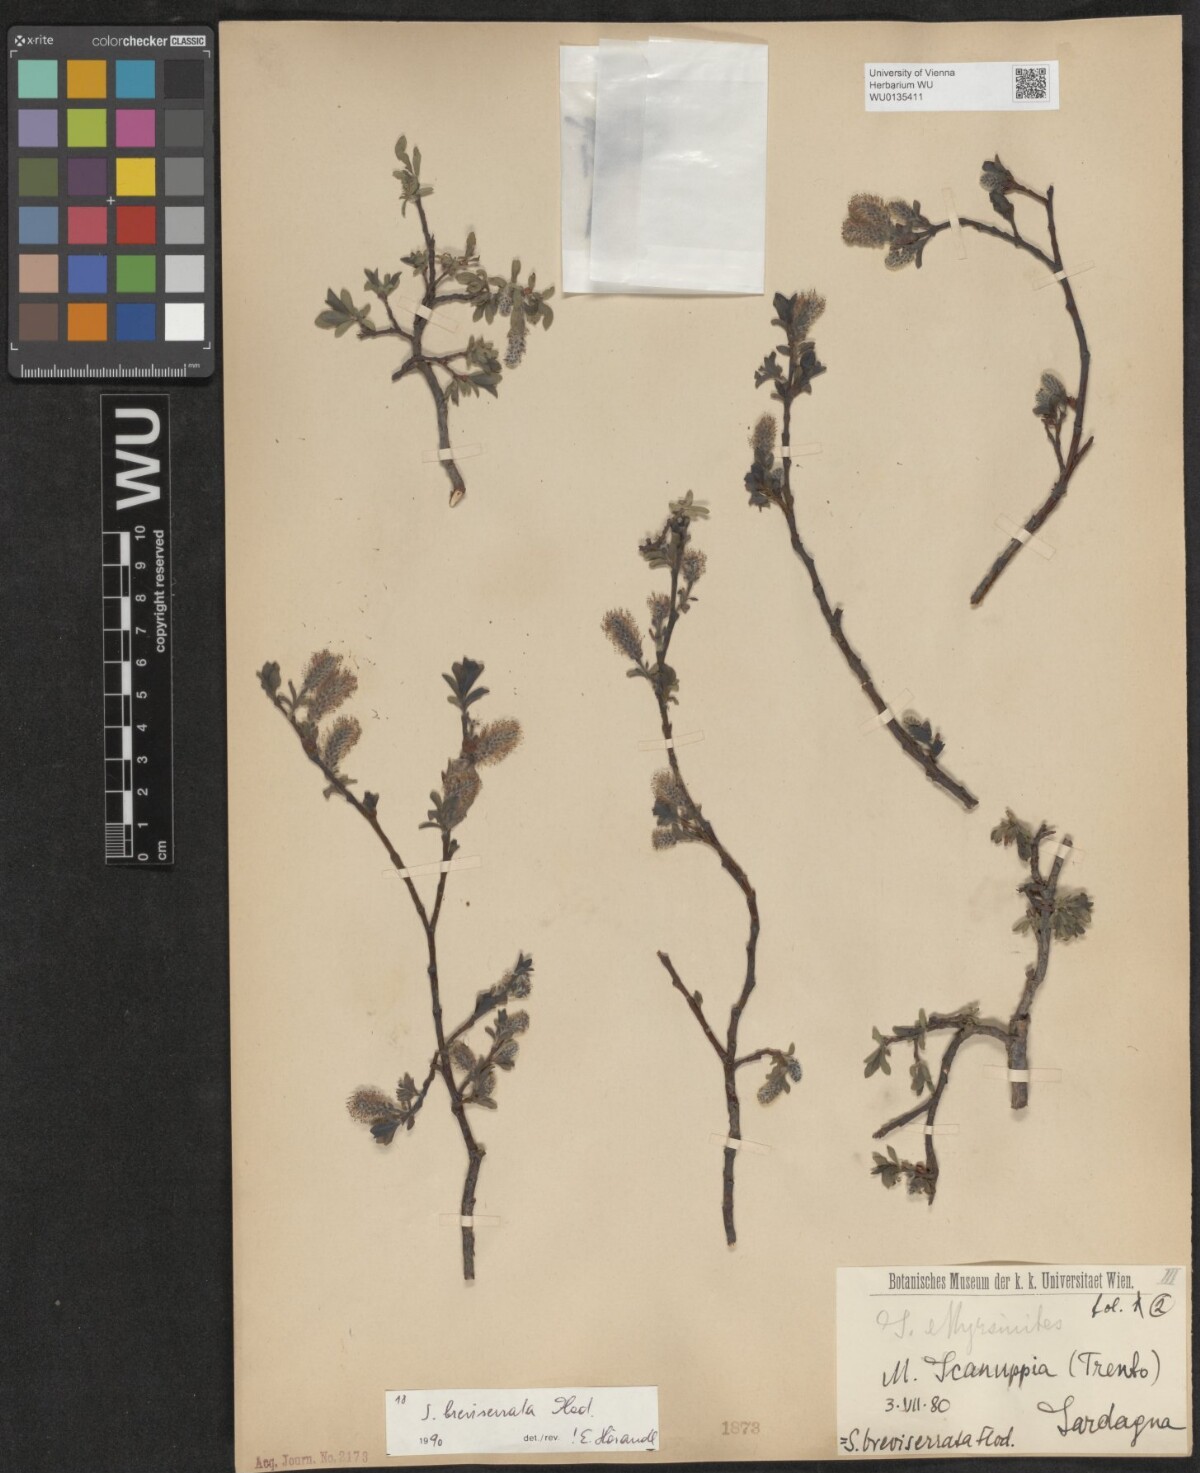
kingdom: Plantae
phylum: Tracheophyta
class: Magnoliopsida
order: Malpighiales
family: Salicaceae
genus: Salix
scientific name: Salix breviserrata
